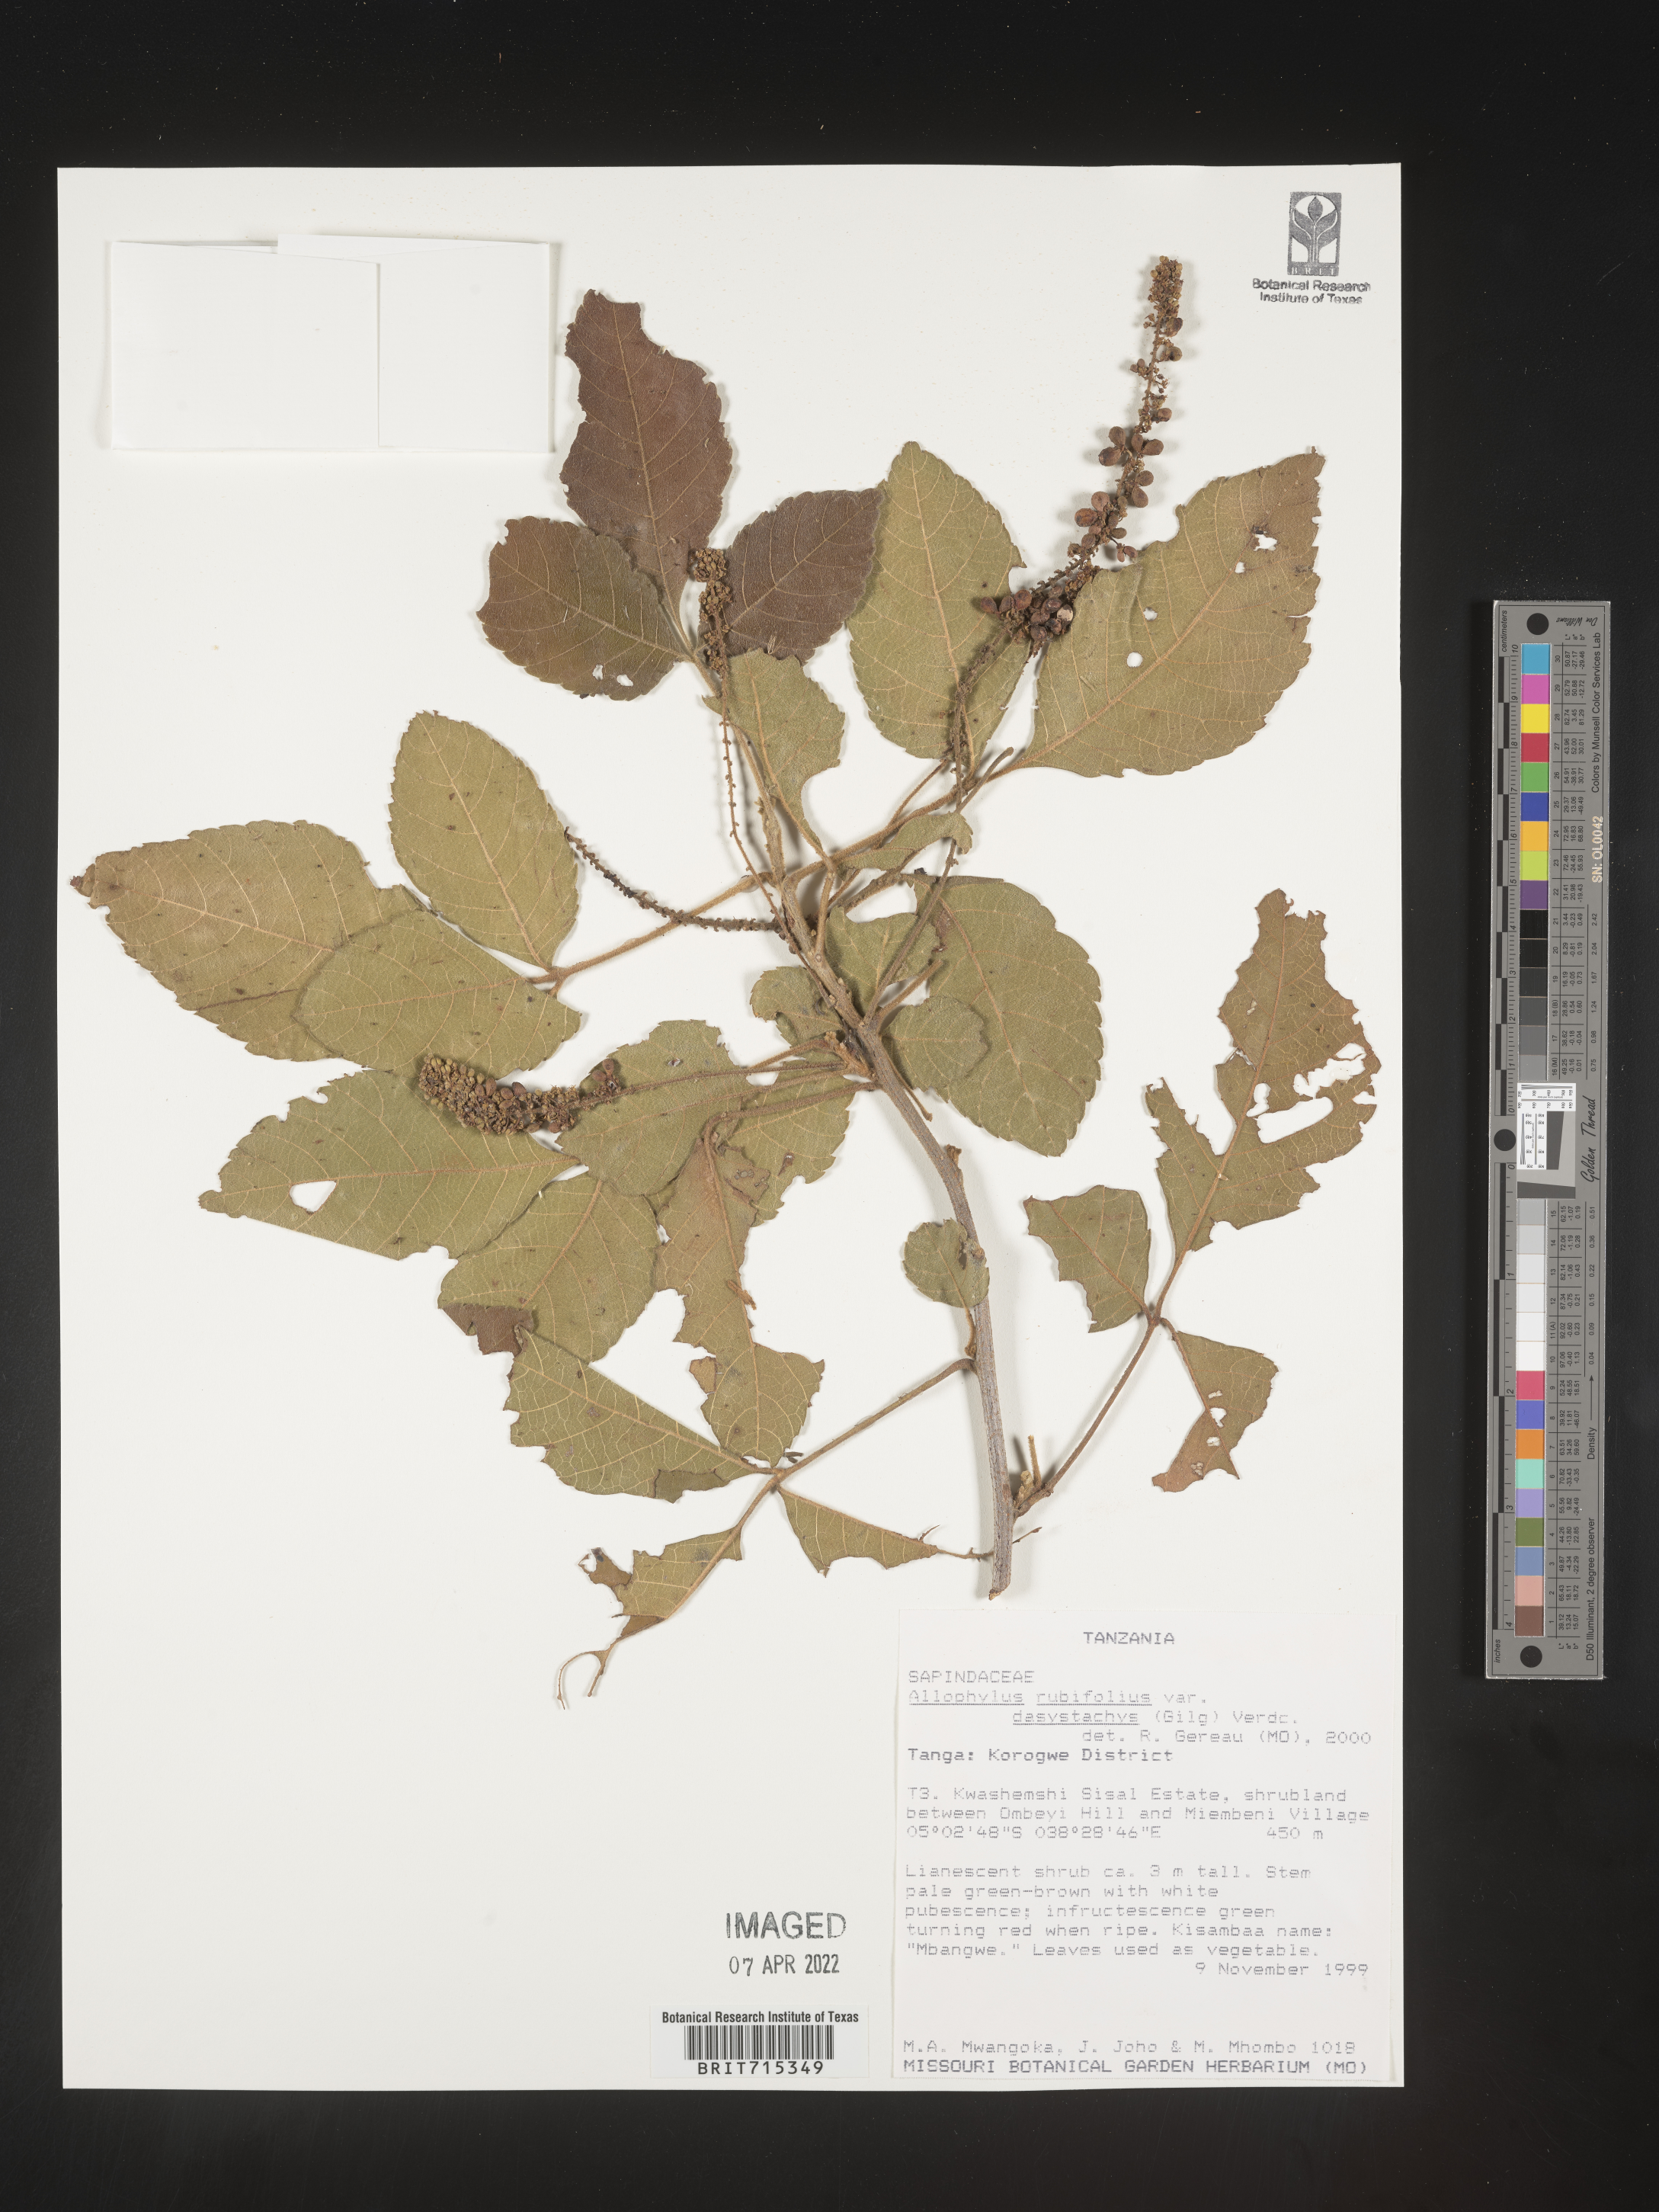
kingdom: Plantae
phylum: Tracheophyta
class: Magnoliopsida
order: Sapindales
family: Sapindaceae
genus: Allophylus
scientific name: Allophylus rubifolius
